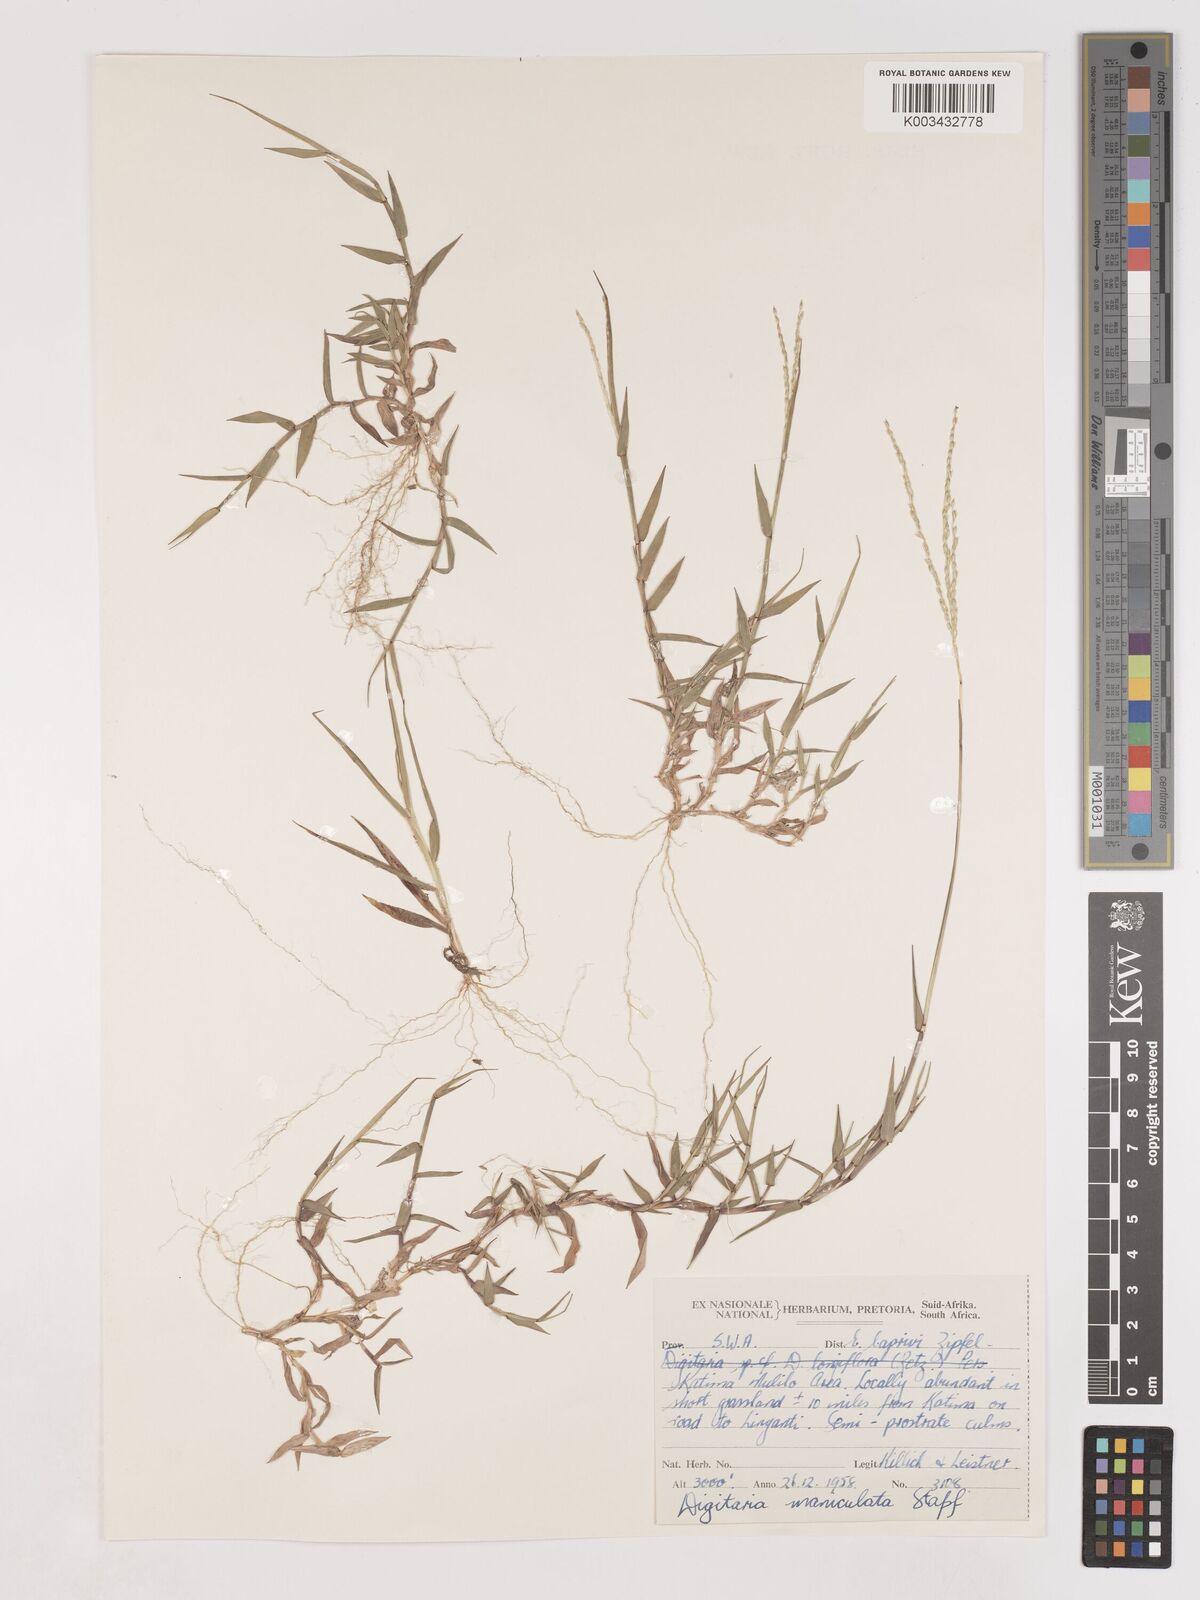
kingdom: Plantae
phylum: Tracheophyta
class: Liliopsida
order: Poales
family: Poaceae
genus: Digitaria
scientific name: Digitaria maniculata
